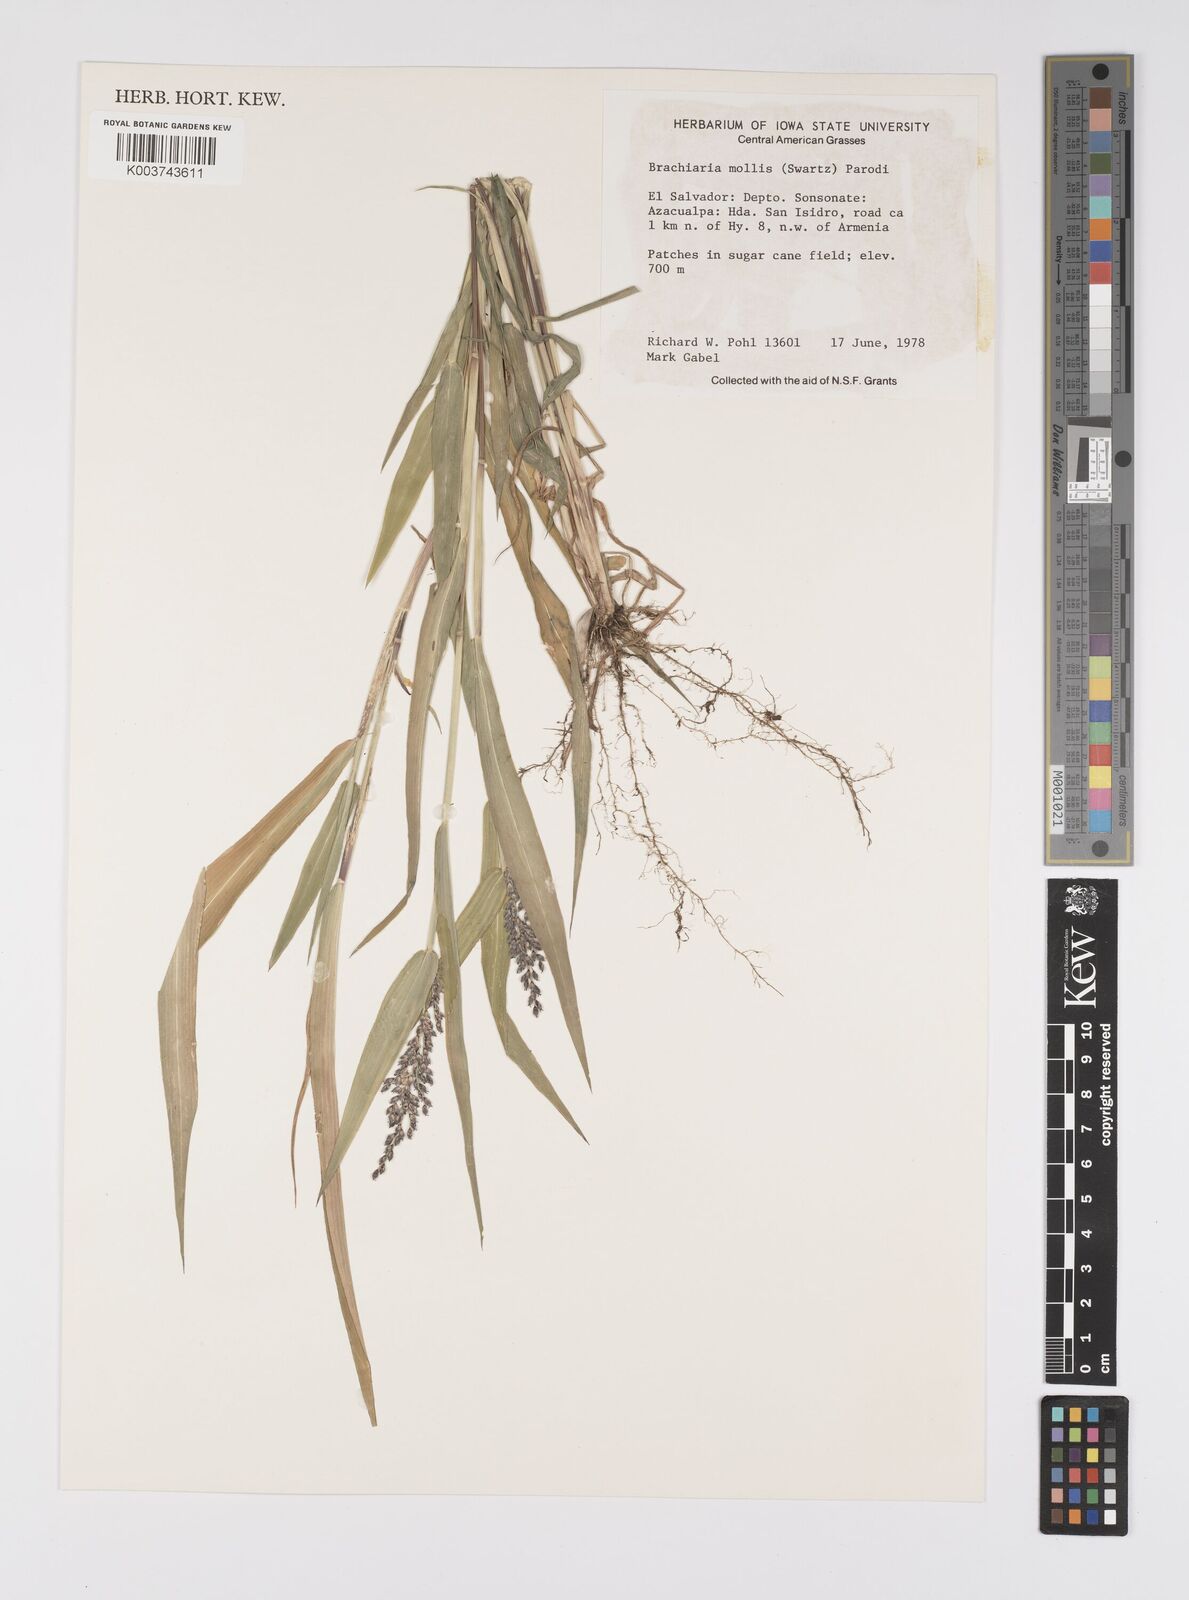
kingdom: Plantae
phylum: Tracheophyta
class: Liliopsida
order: Poales
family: Poaceae
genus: Urochloa
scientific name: Urochloa mollis
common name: Grass
